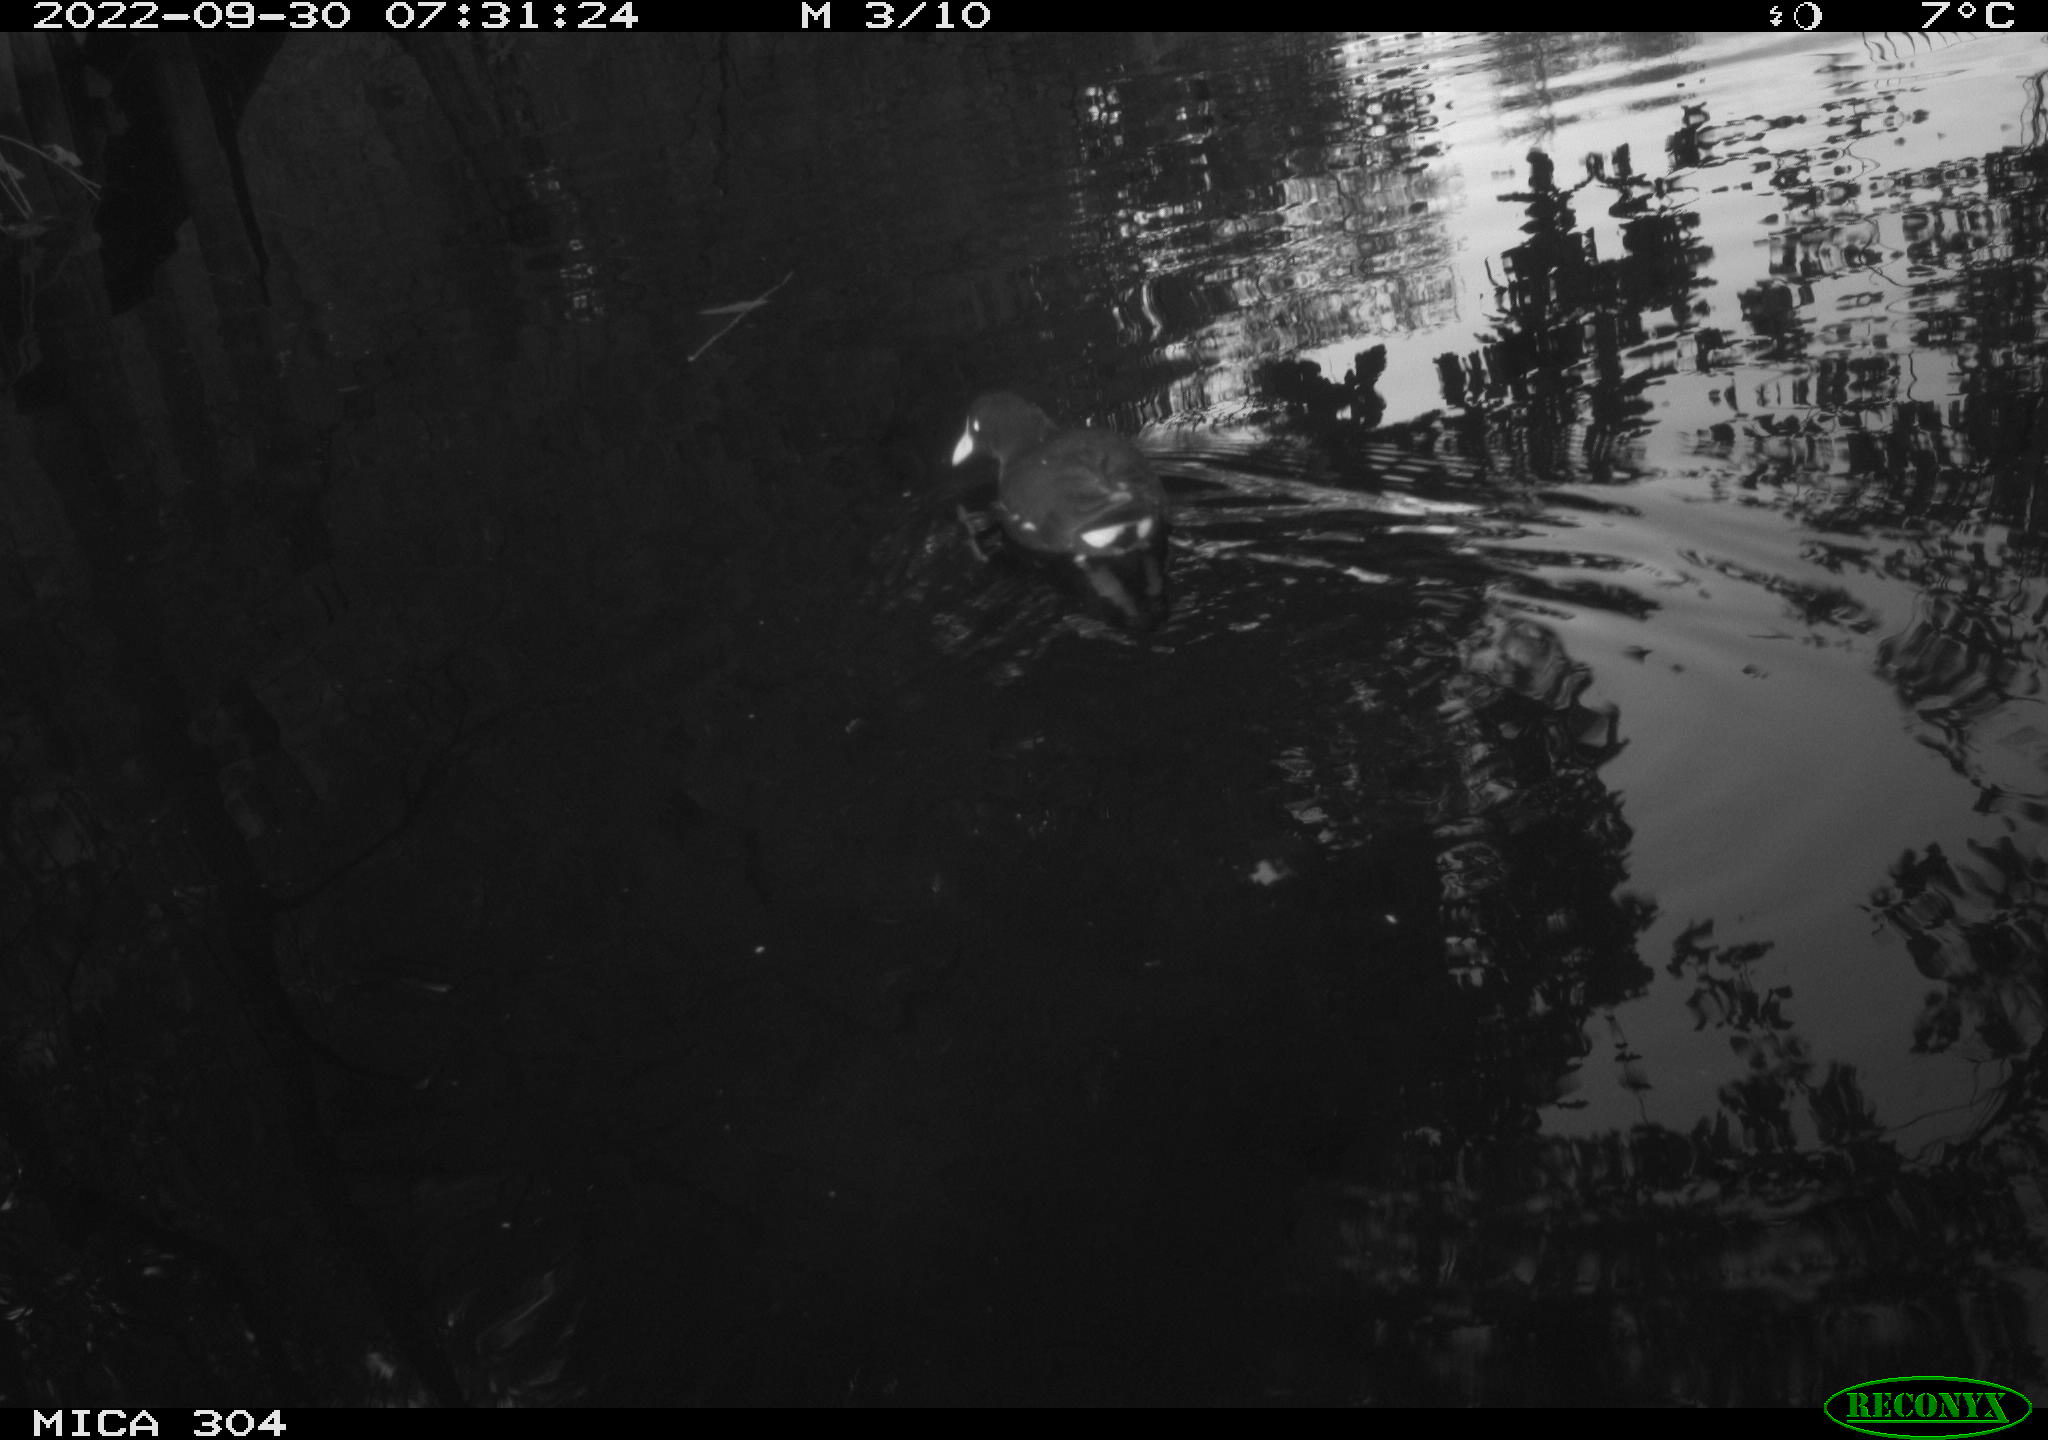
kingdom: Animalia
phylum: Chordata
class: Aves
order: Gruiformes
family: Rallidae
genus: Gallinula
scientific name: Gallinula chloropus
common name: Common moorhen
